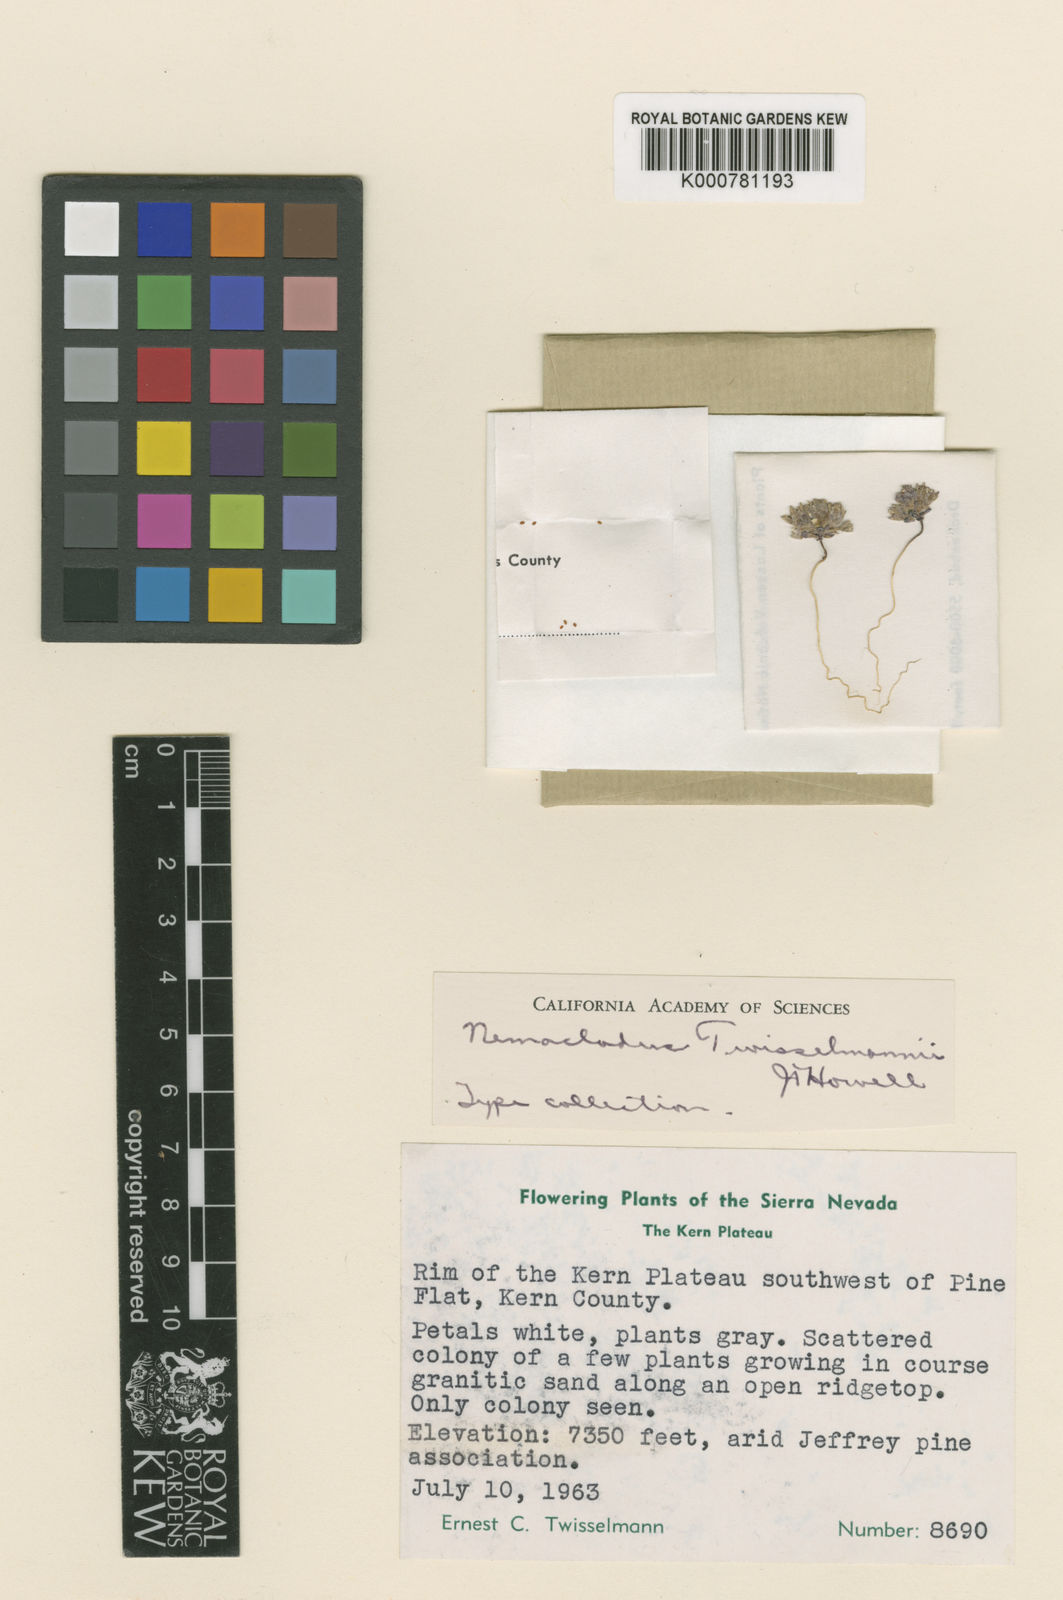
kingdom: Plantae
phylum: Tracheophyta
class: Magnoliopsida
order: Asterales
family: Campanulaceae
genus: Nemacladus
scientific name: Nemacladus twisselmannii
